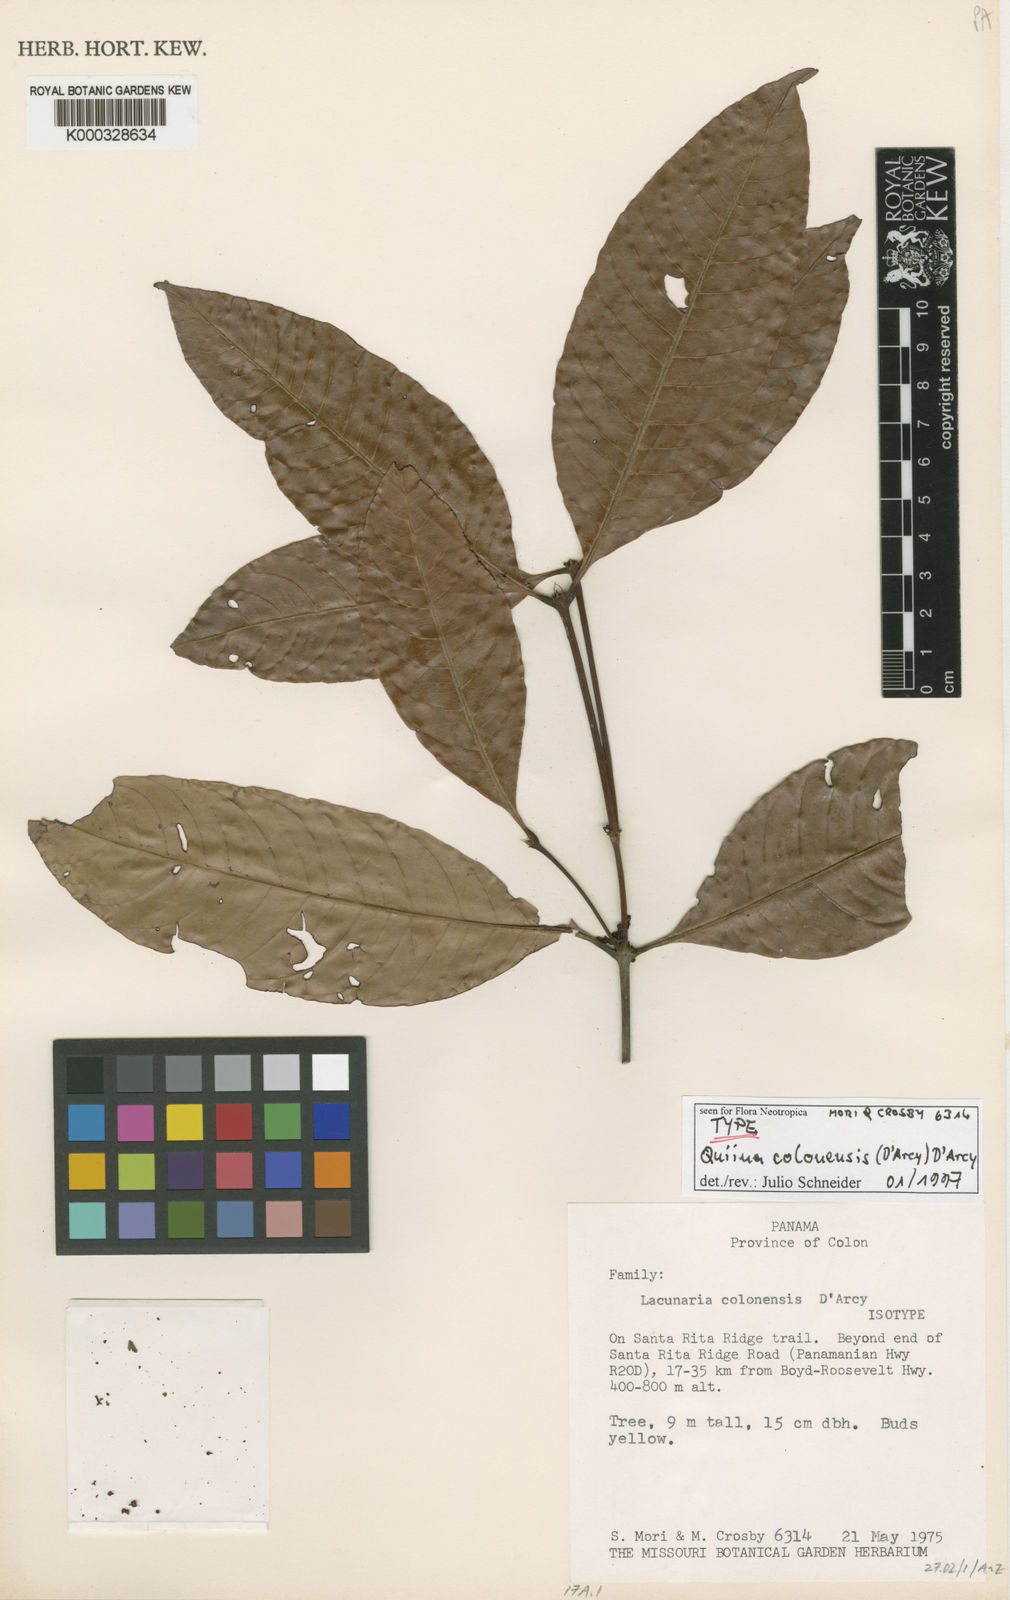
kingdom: Plantae
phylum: Tracheophyta
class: Magnoliopsida
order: Malpighiales
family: Quiinaceae
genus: Quiina
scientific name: Quiina
